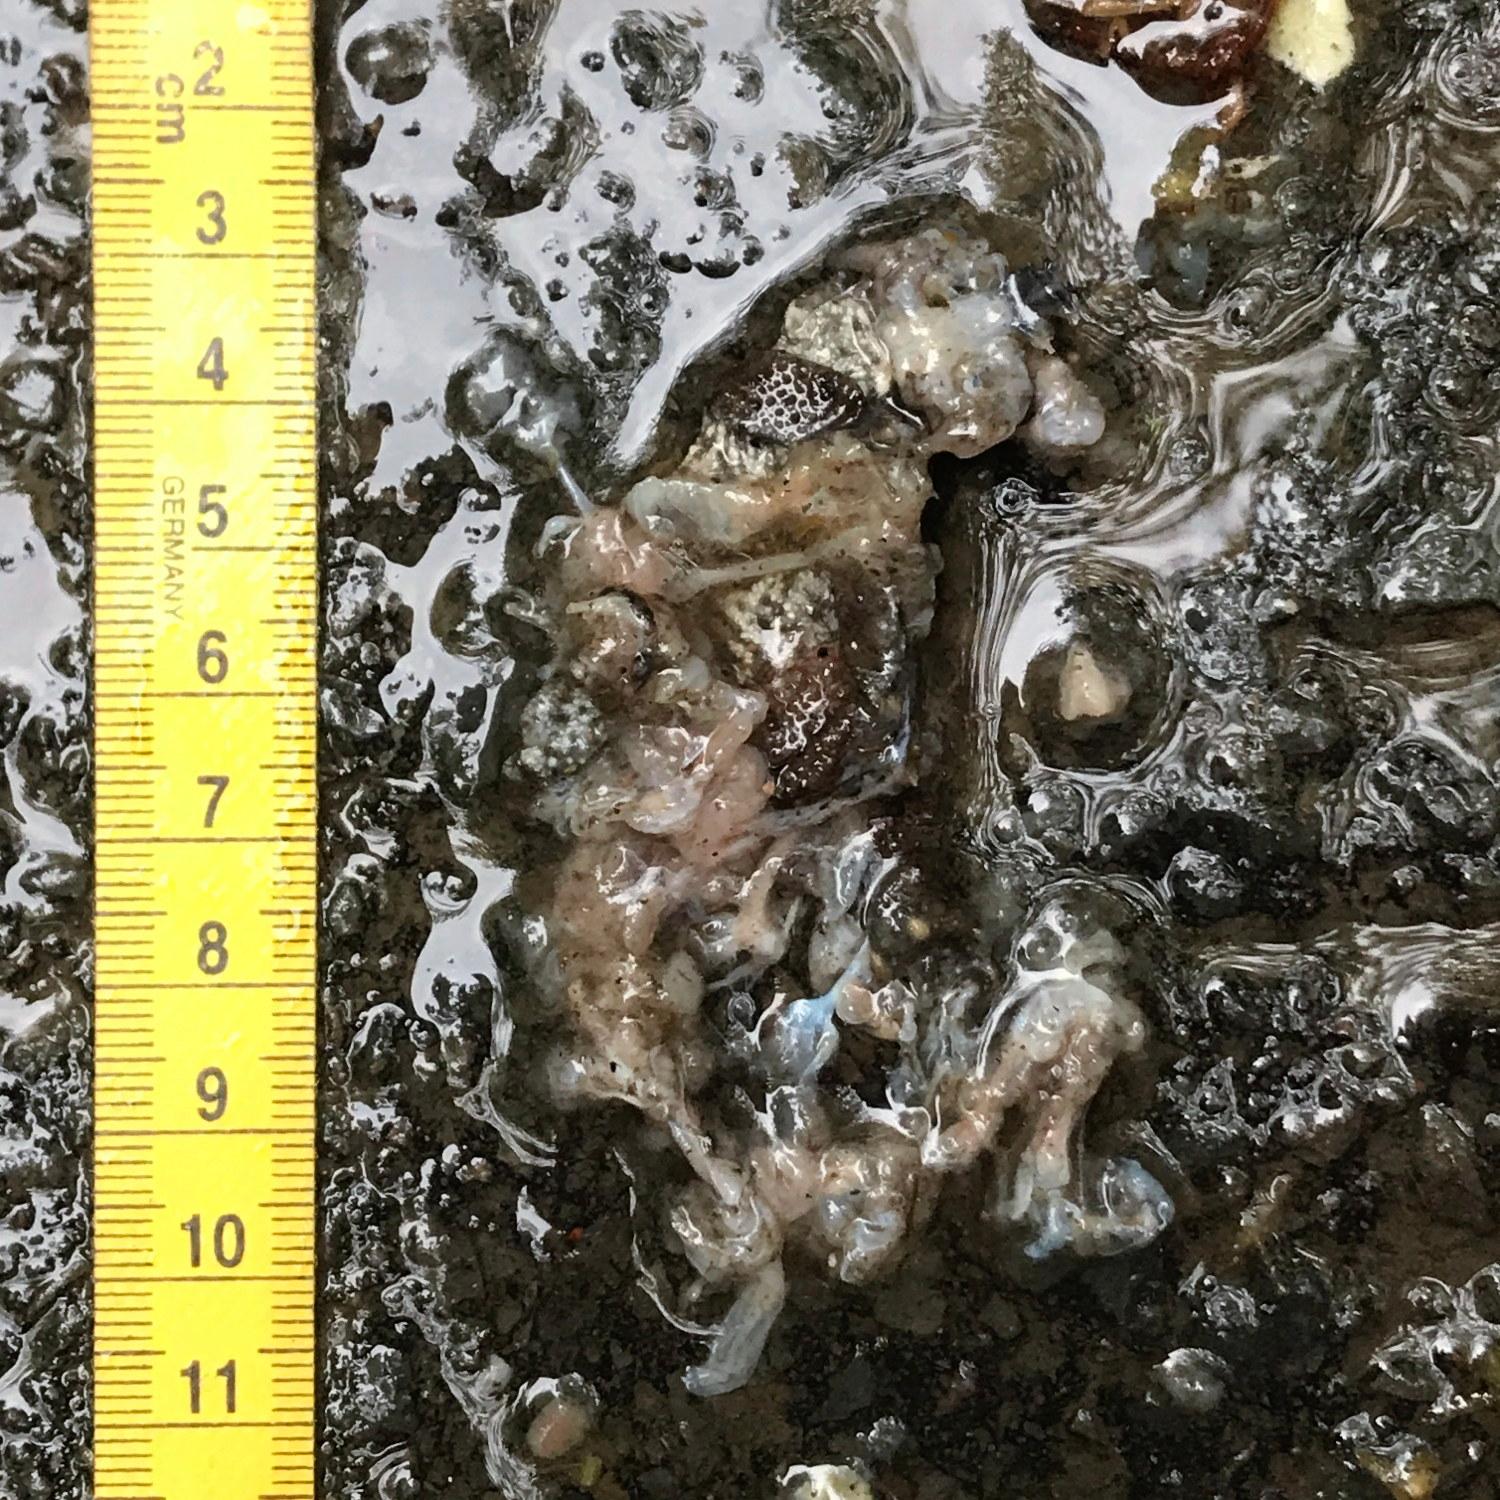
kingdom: Animalia
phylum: Chordata
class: Amphibia
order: Anura
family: Bufonidae
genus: Bufo
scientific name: Bufo bufo
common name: Common toad
